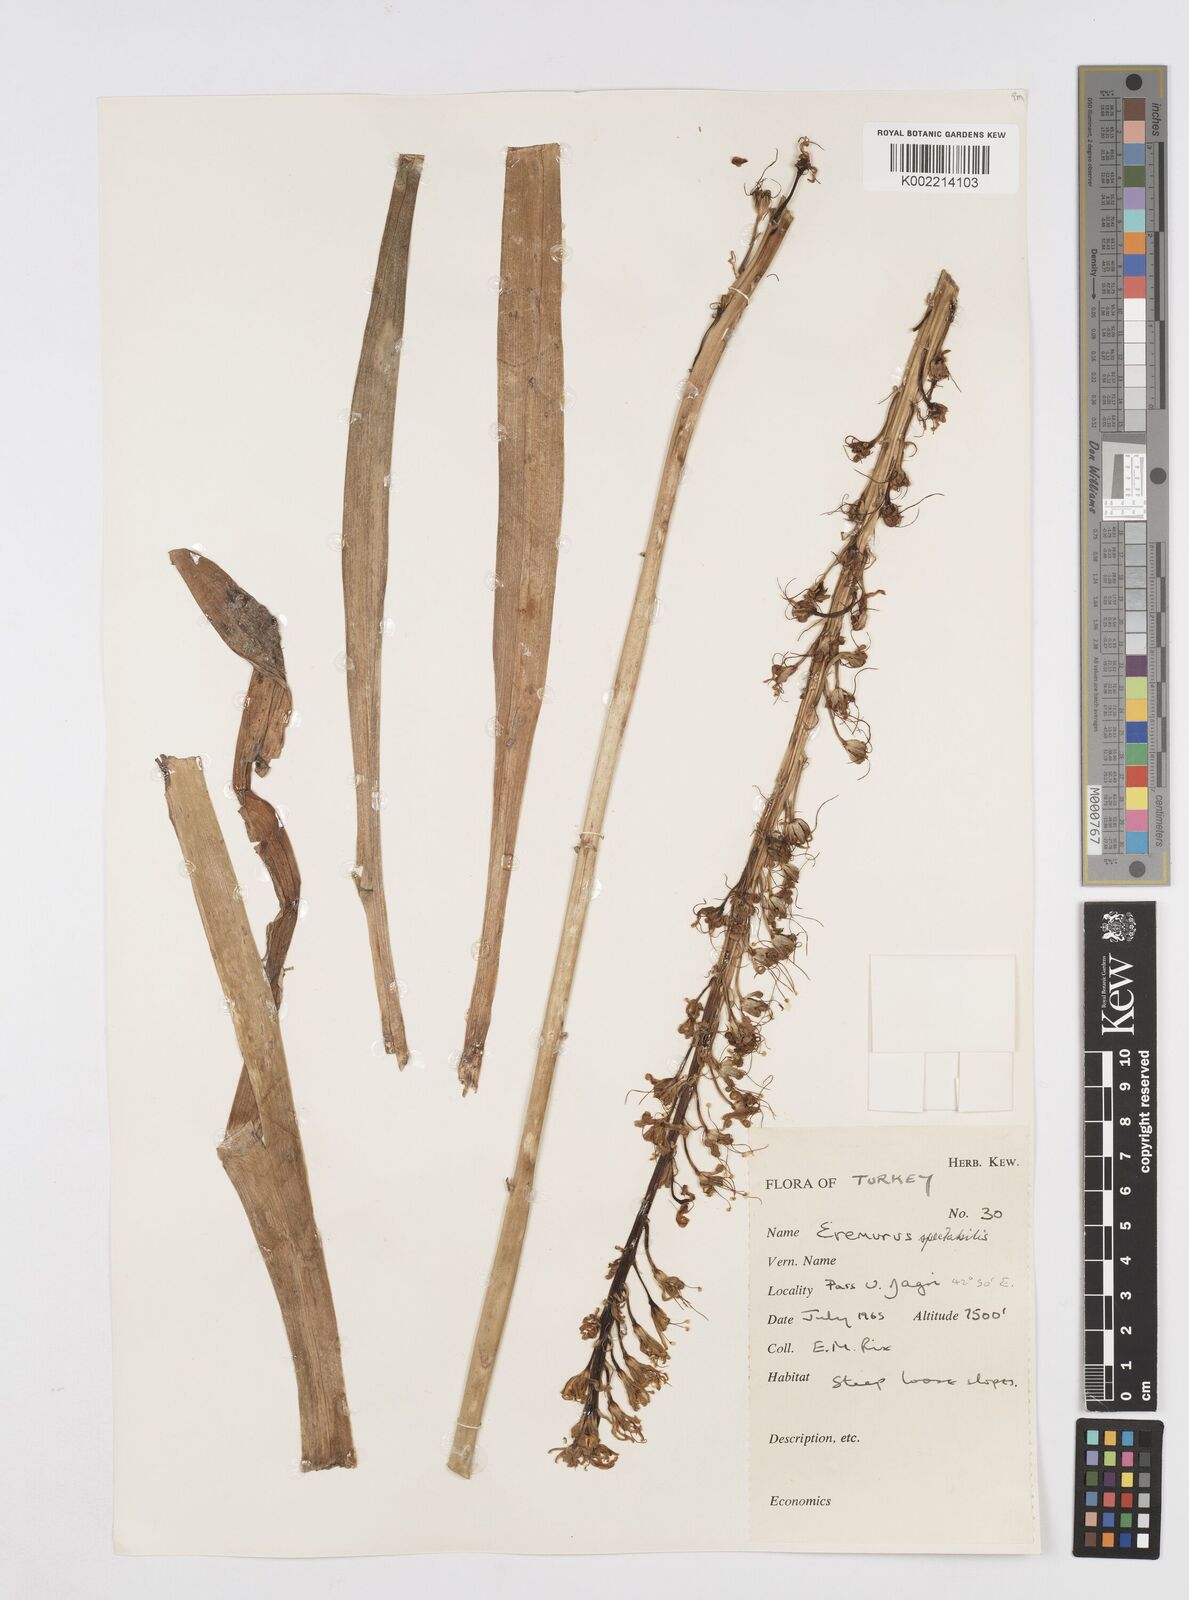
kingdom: Plantae
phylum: Tracheophyta
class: Liliopsida
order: Asparagales
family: Asphodelaceae
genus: Eremurus
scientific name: Eremurus spectabilis
